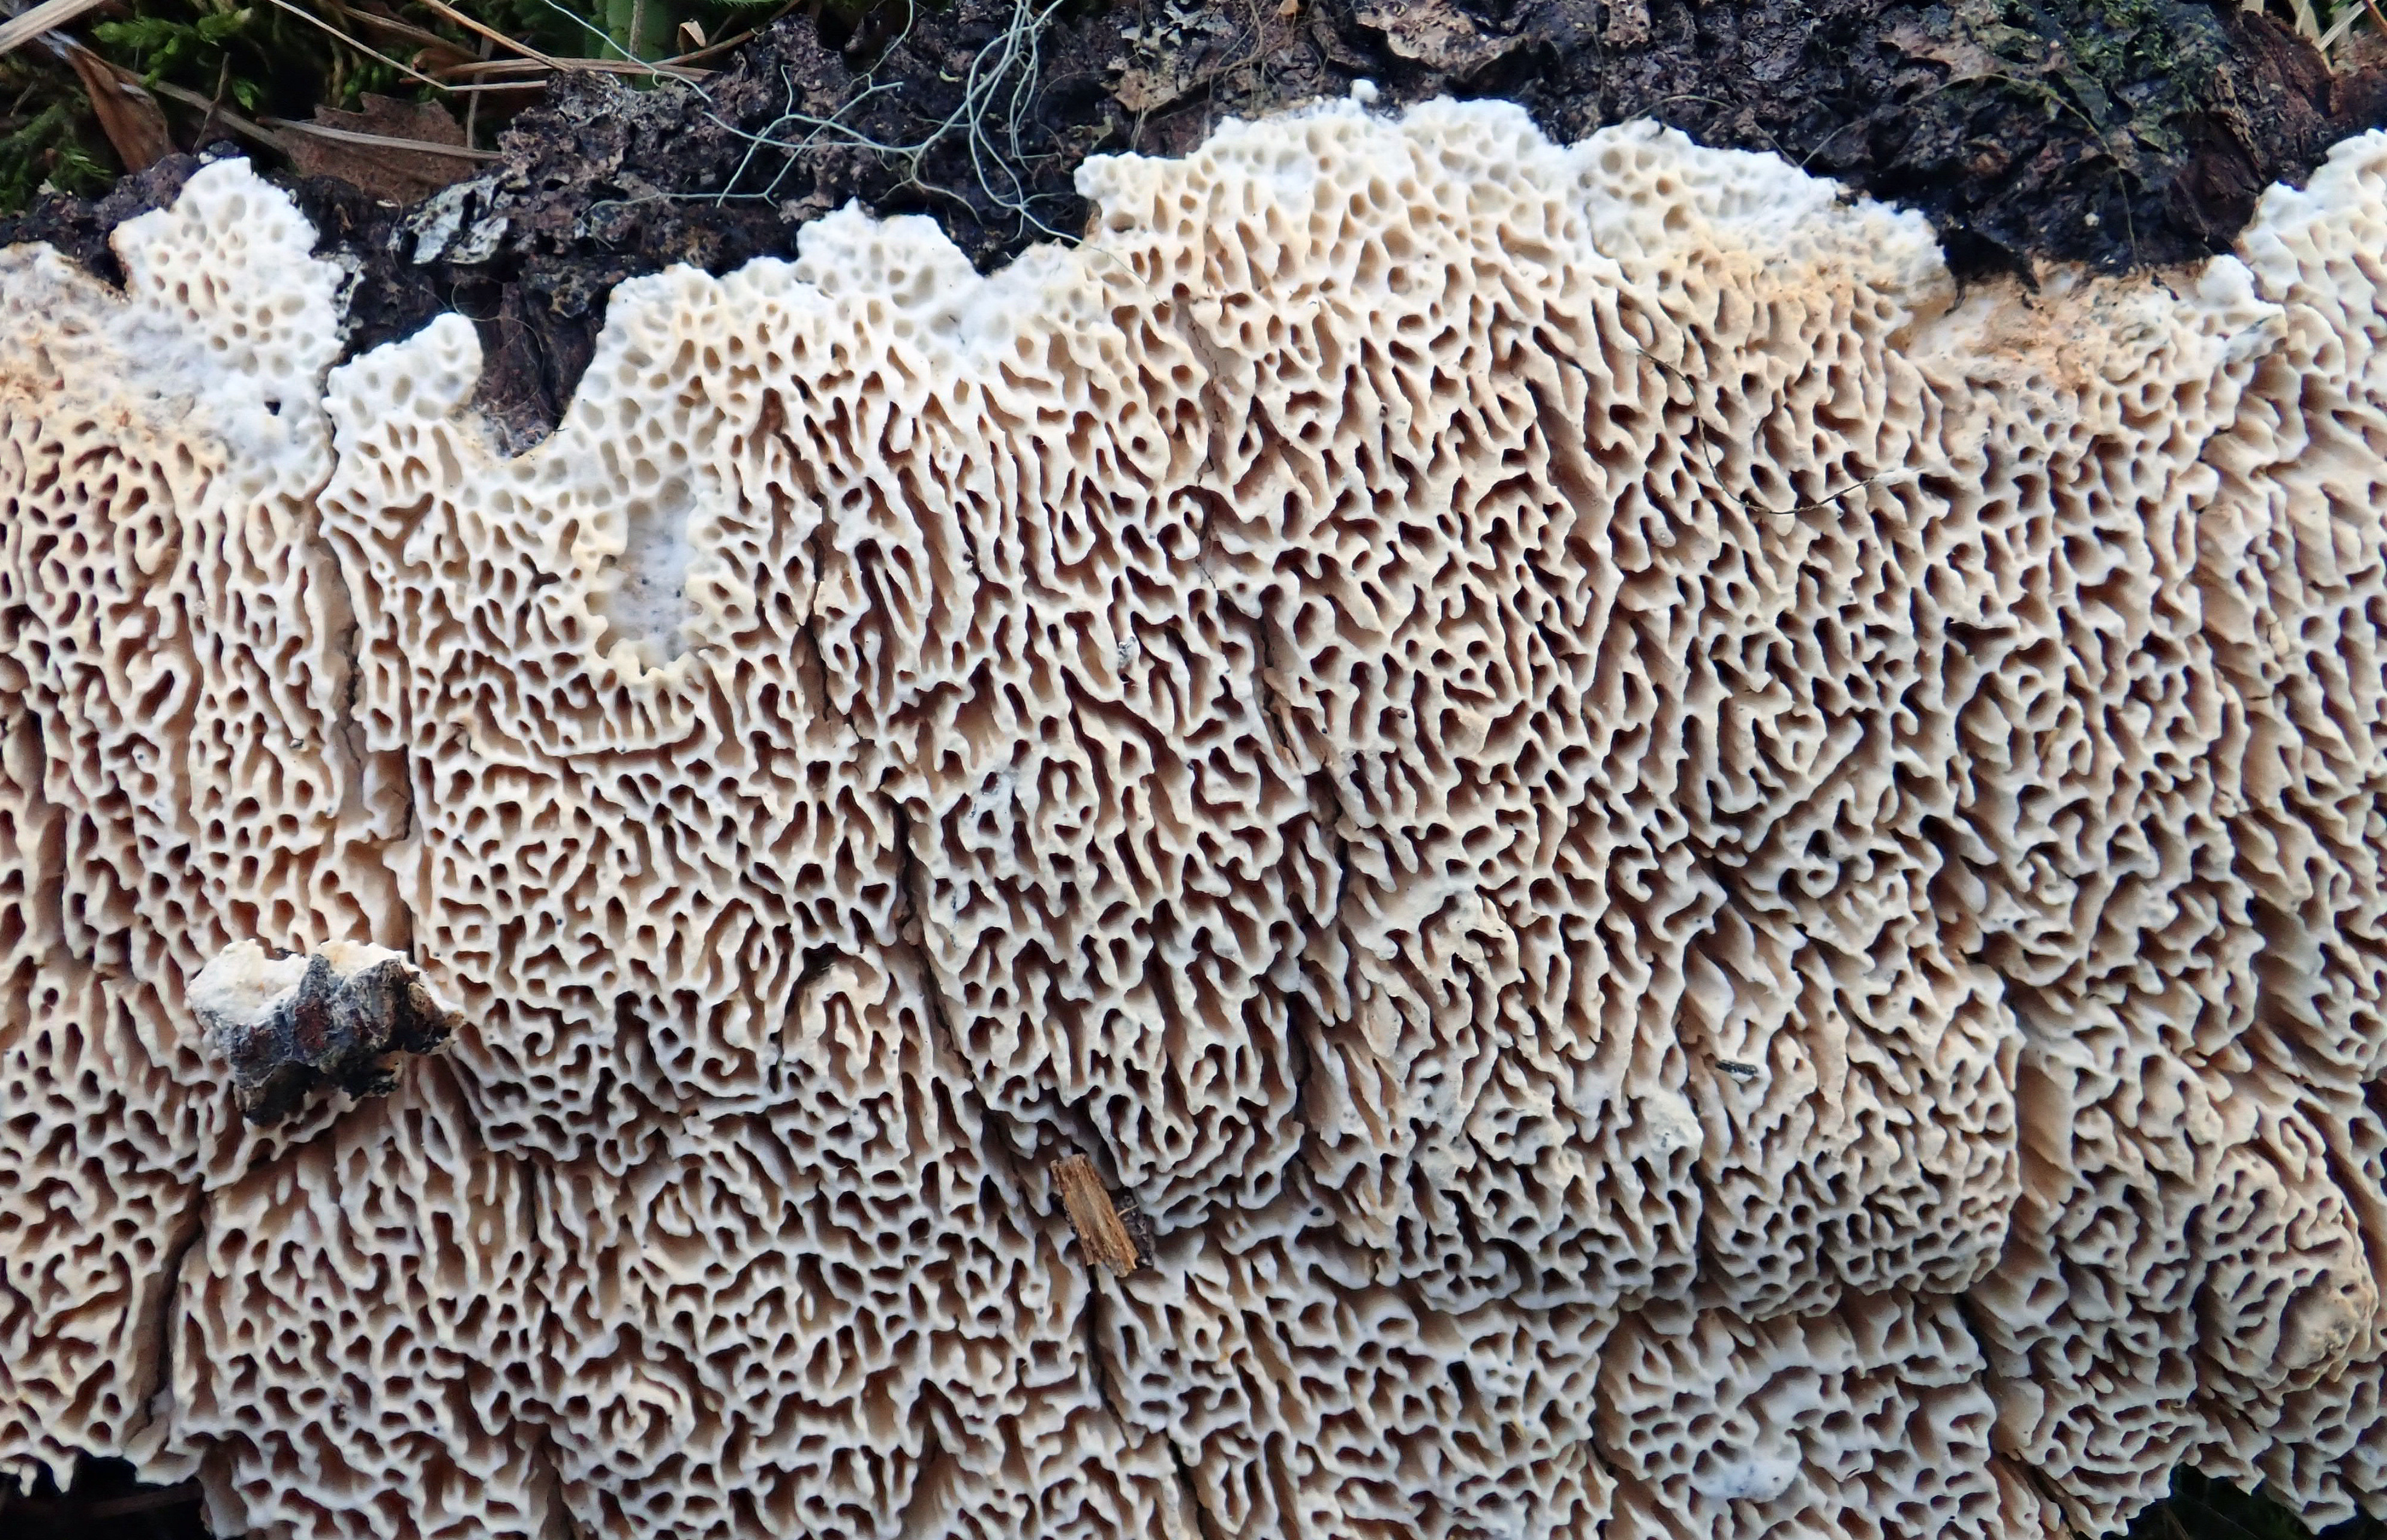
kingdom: Fungi
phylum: Basidiomycota
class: Agaricomycetes
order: Polyporales
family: Fomitopsidaceae
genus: Antrodia
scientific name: Antrodia heteromorpha
